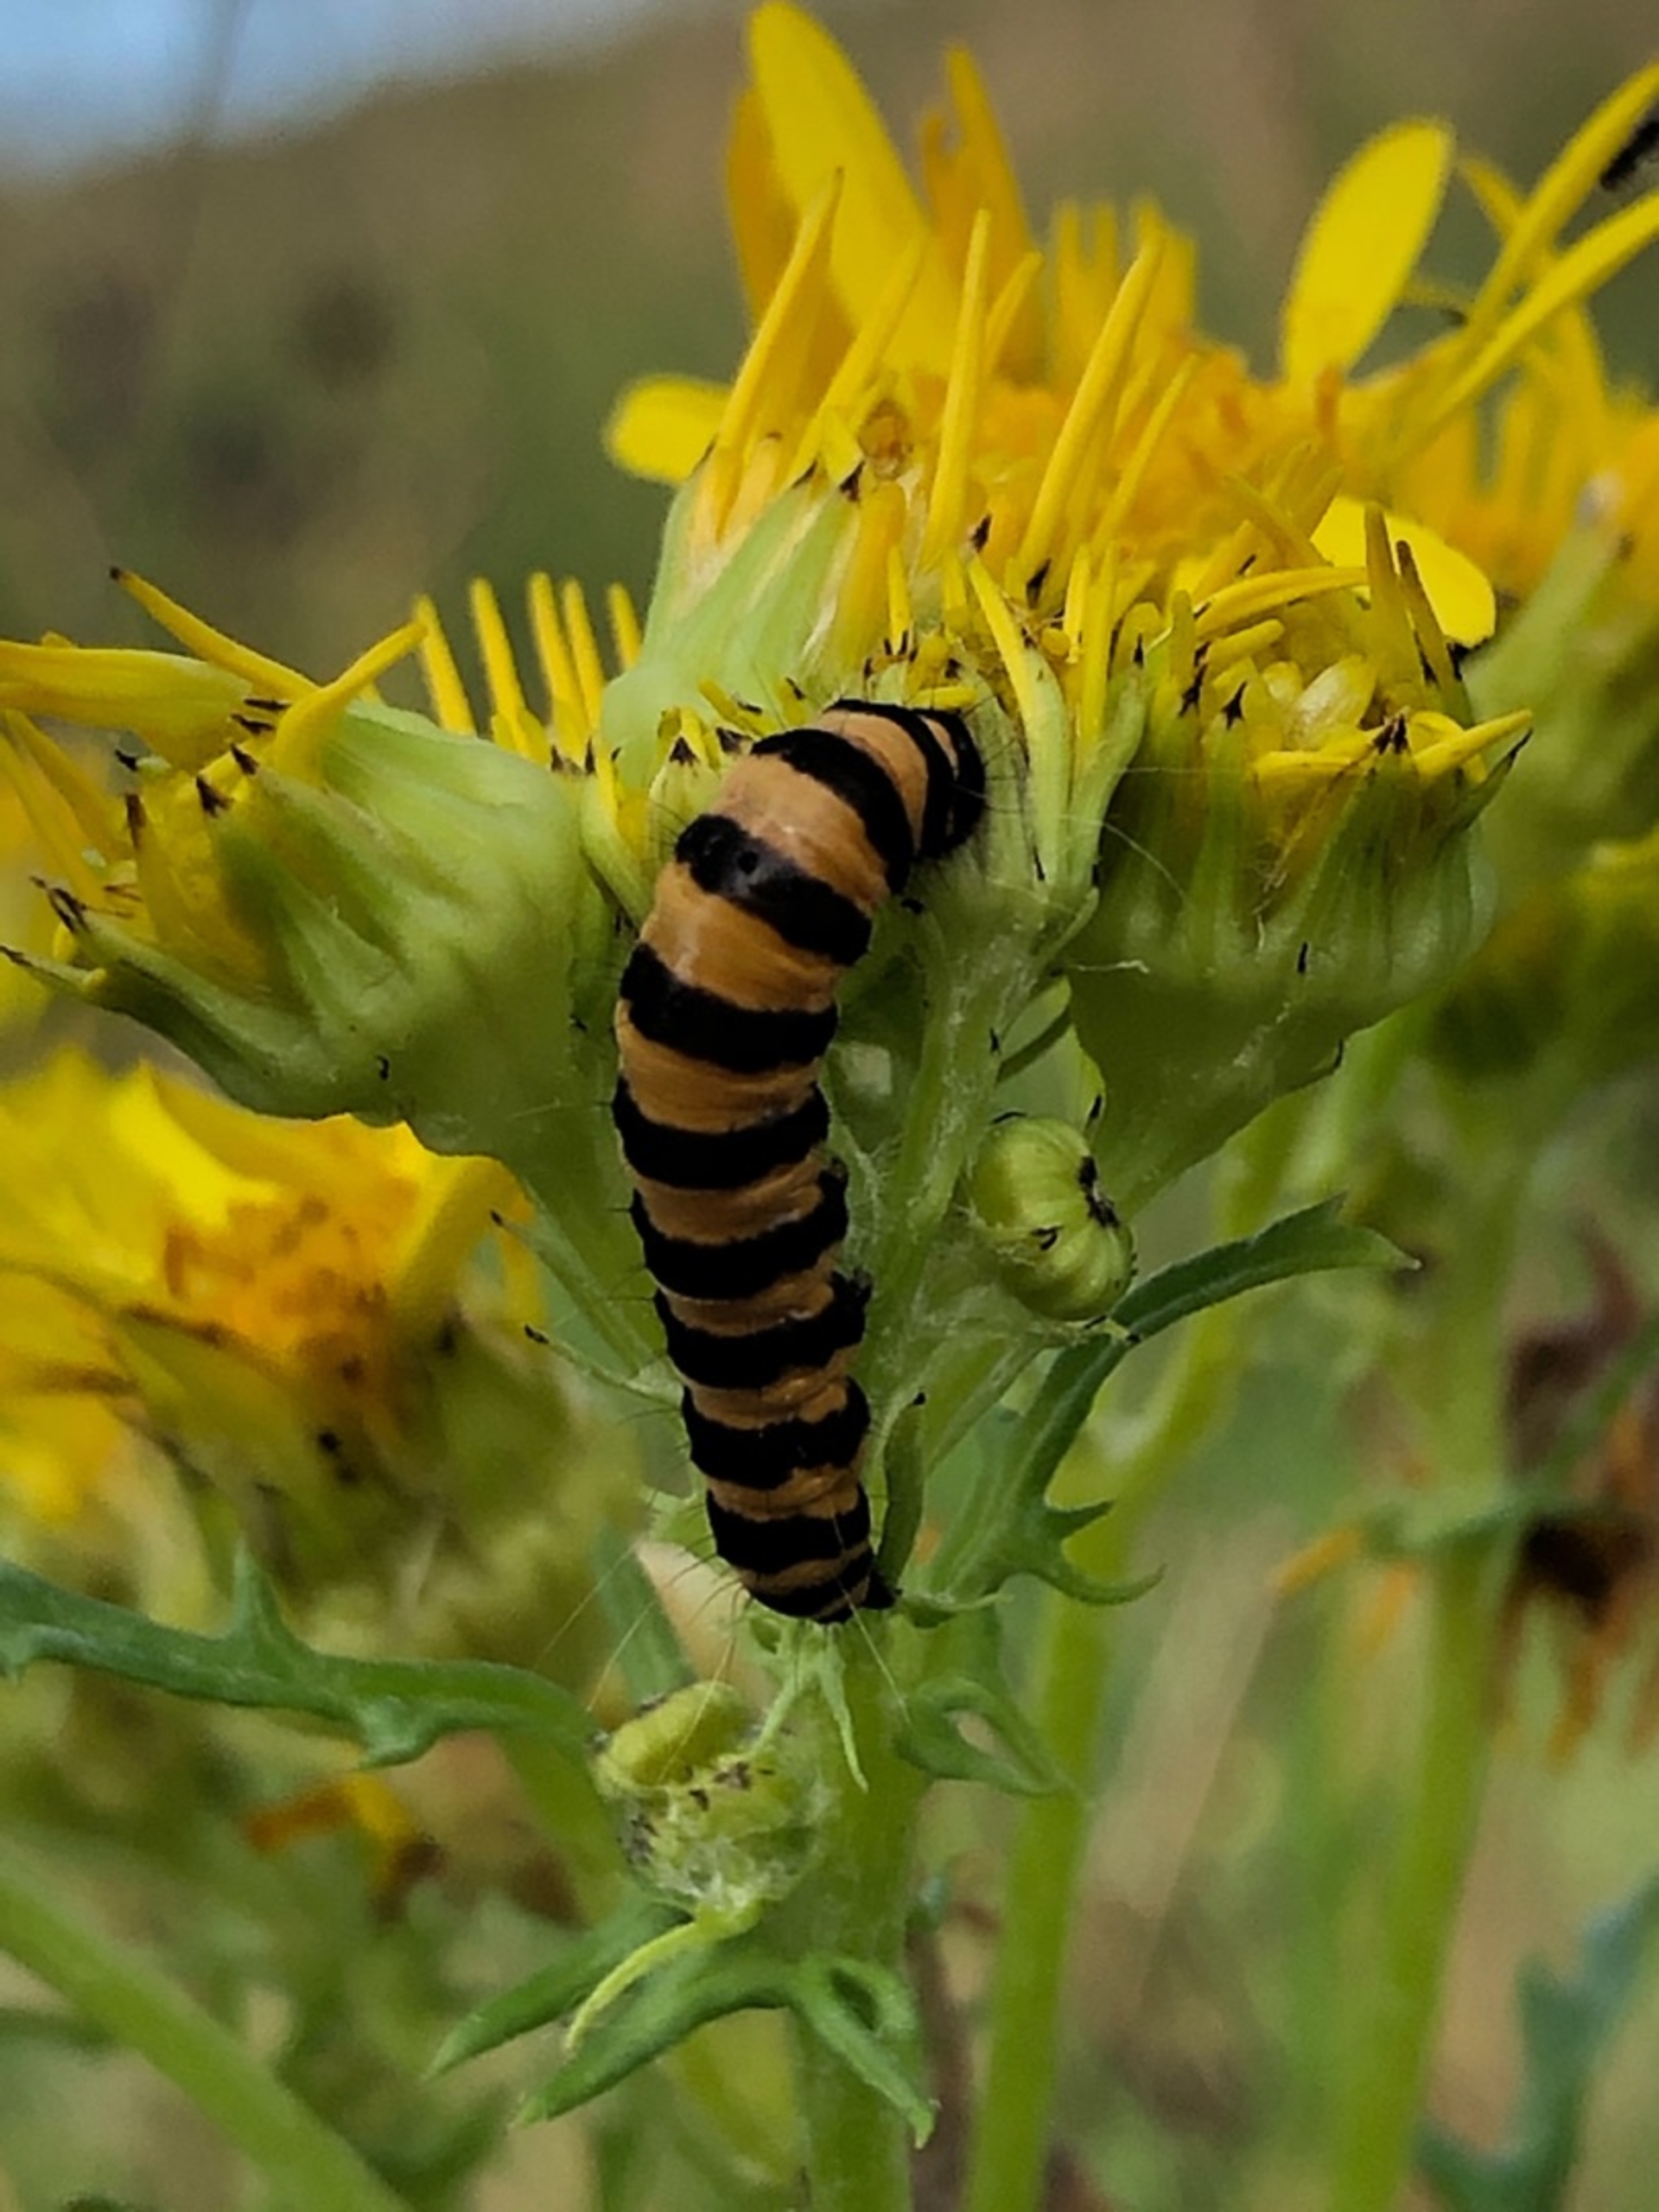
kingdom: Animalia
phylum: Arthropoda
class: Insecta
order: Lepidoptera
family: Erebidae
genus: Tyria
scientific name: Tyria jacobaeae
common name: Blodplet
